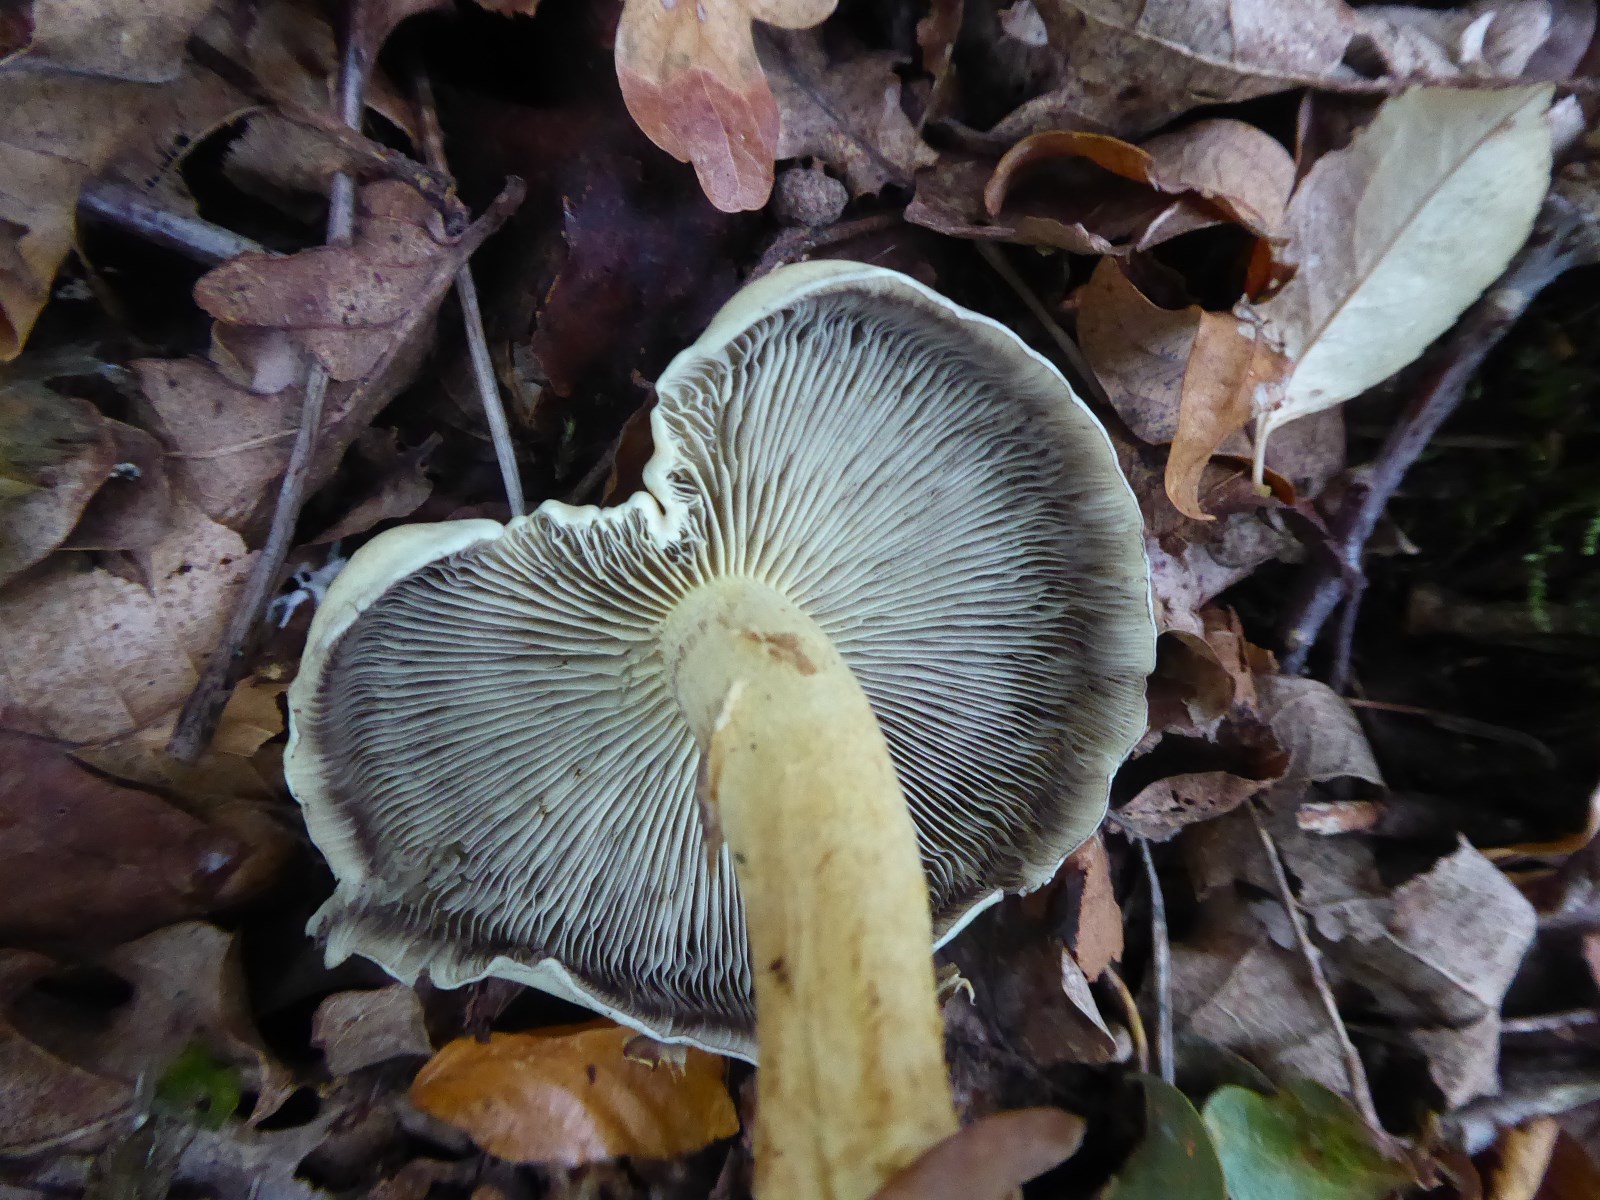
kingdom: Fungi
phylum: Basidiomycota
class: Agaricomycetes
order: Agaricales
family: Strophariaceae
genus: Hypholoma
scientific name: Hypholoma fasciculare
